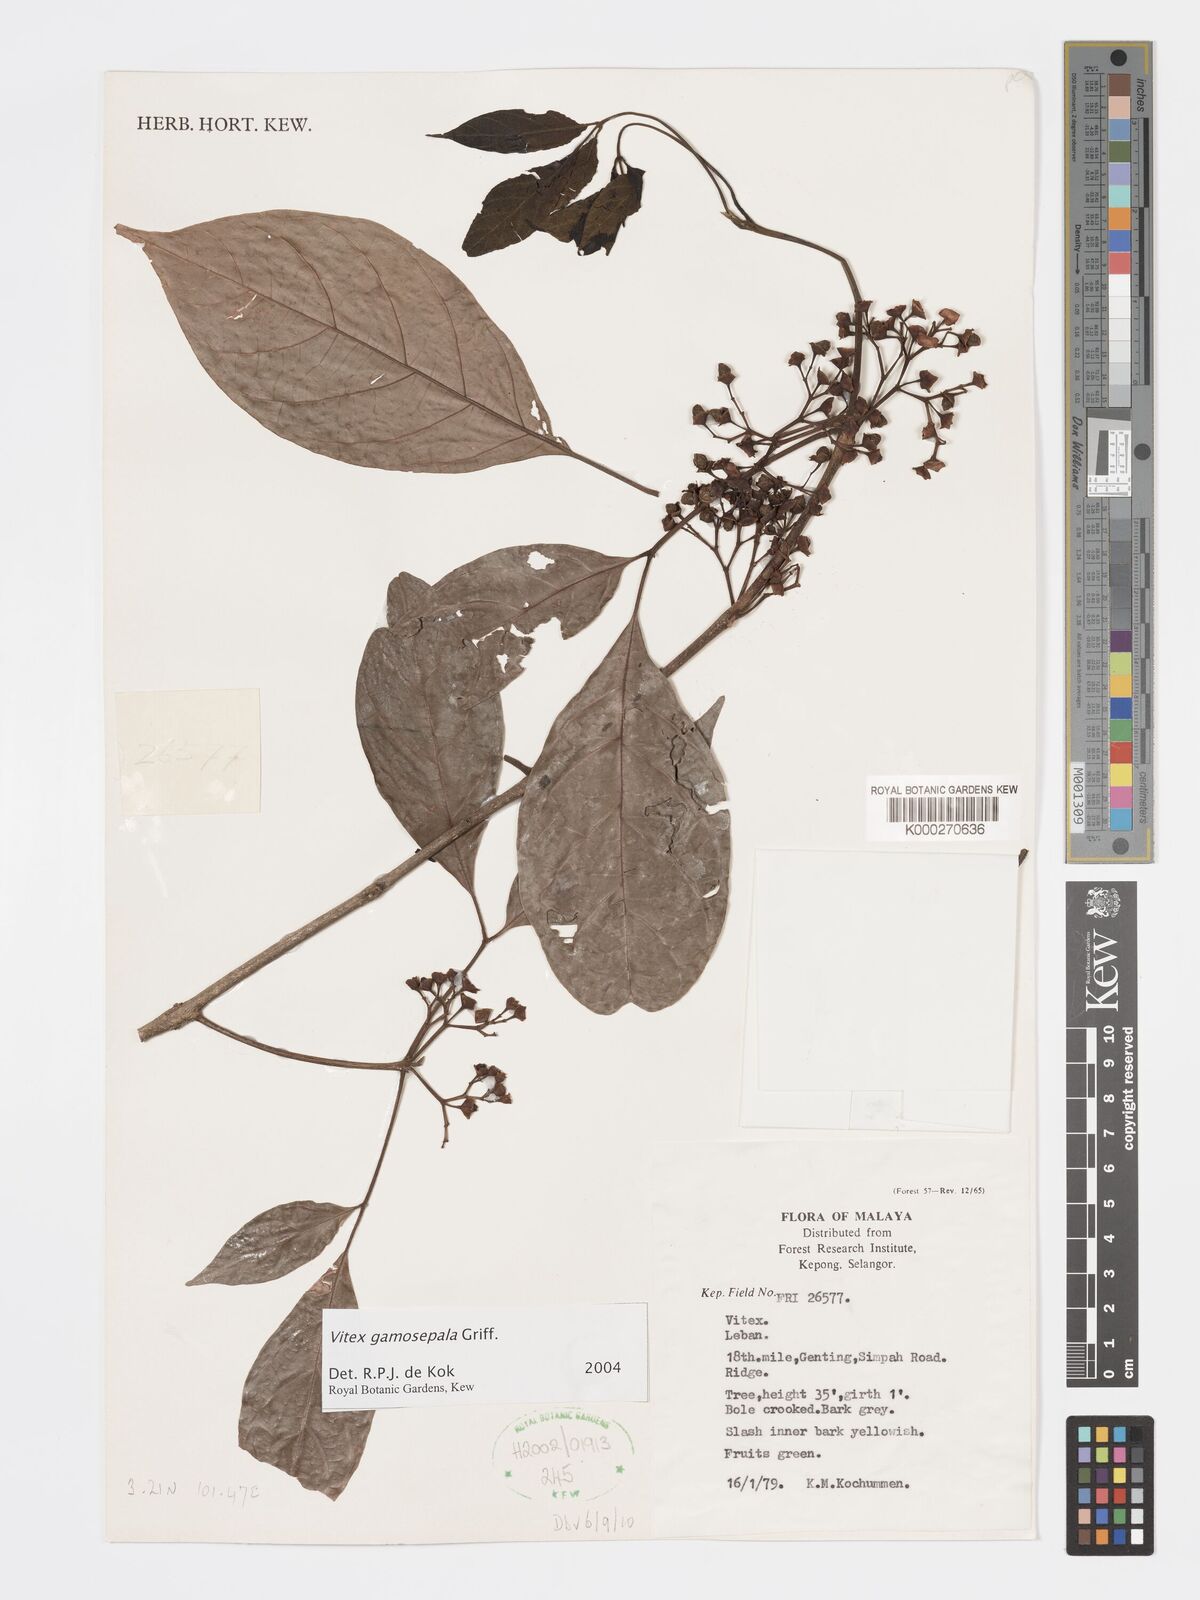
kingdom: Plantae
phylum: Tracheophyta
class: Magnoliopsida
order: Lamiales
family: Lamiaceae
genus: Vitex
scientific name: Vitex gamosepala
